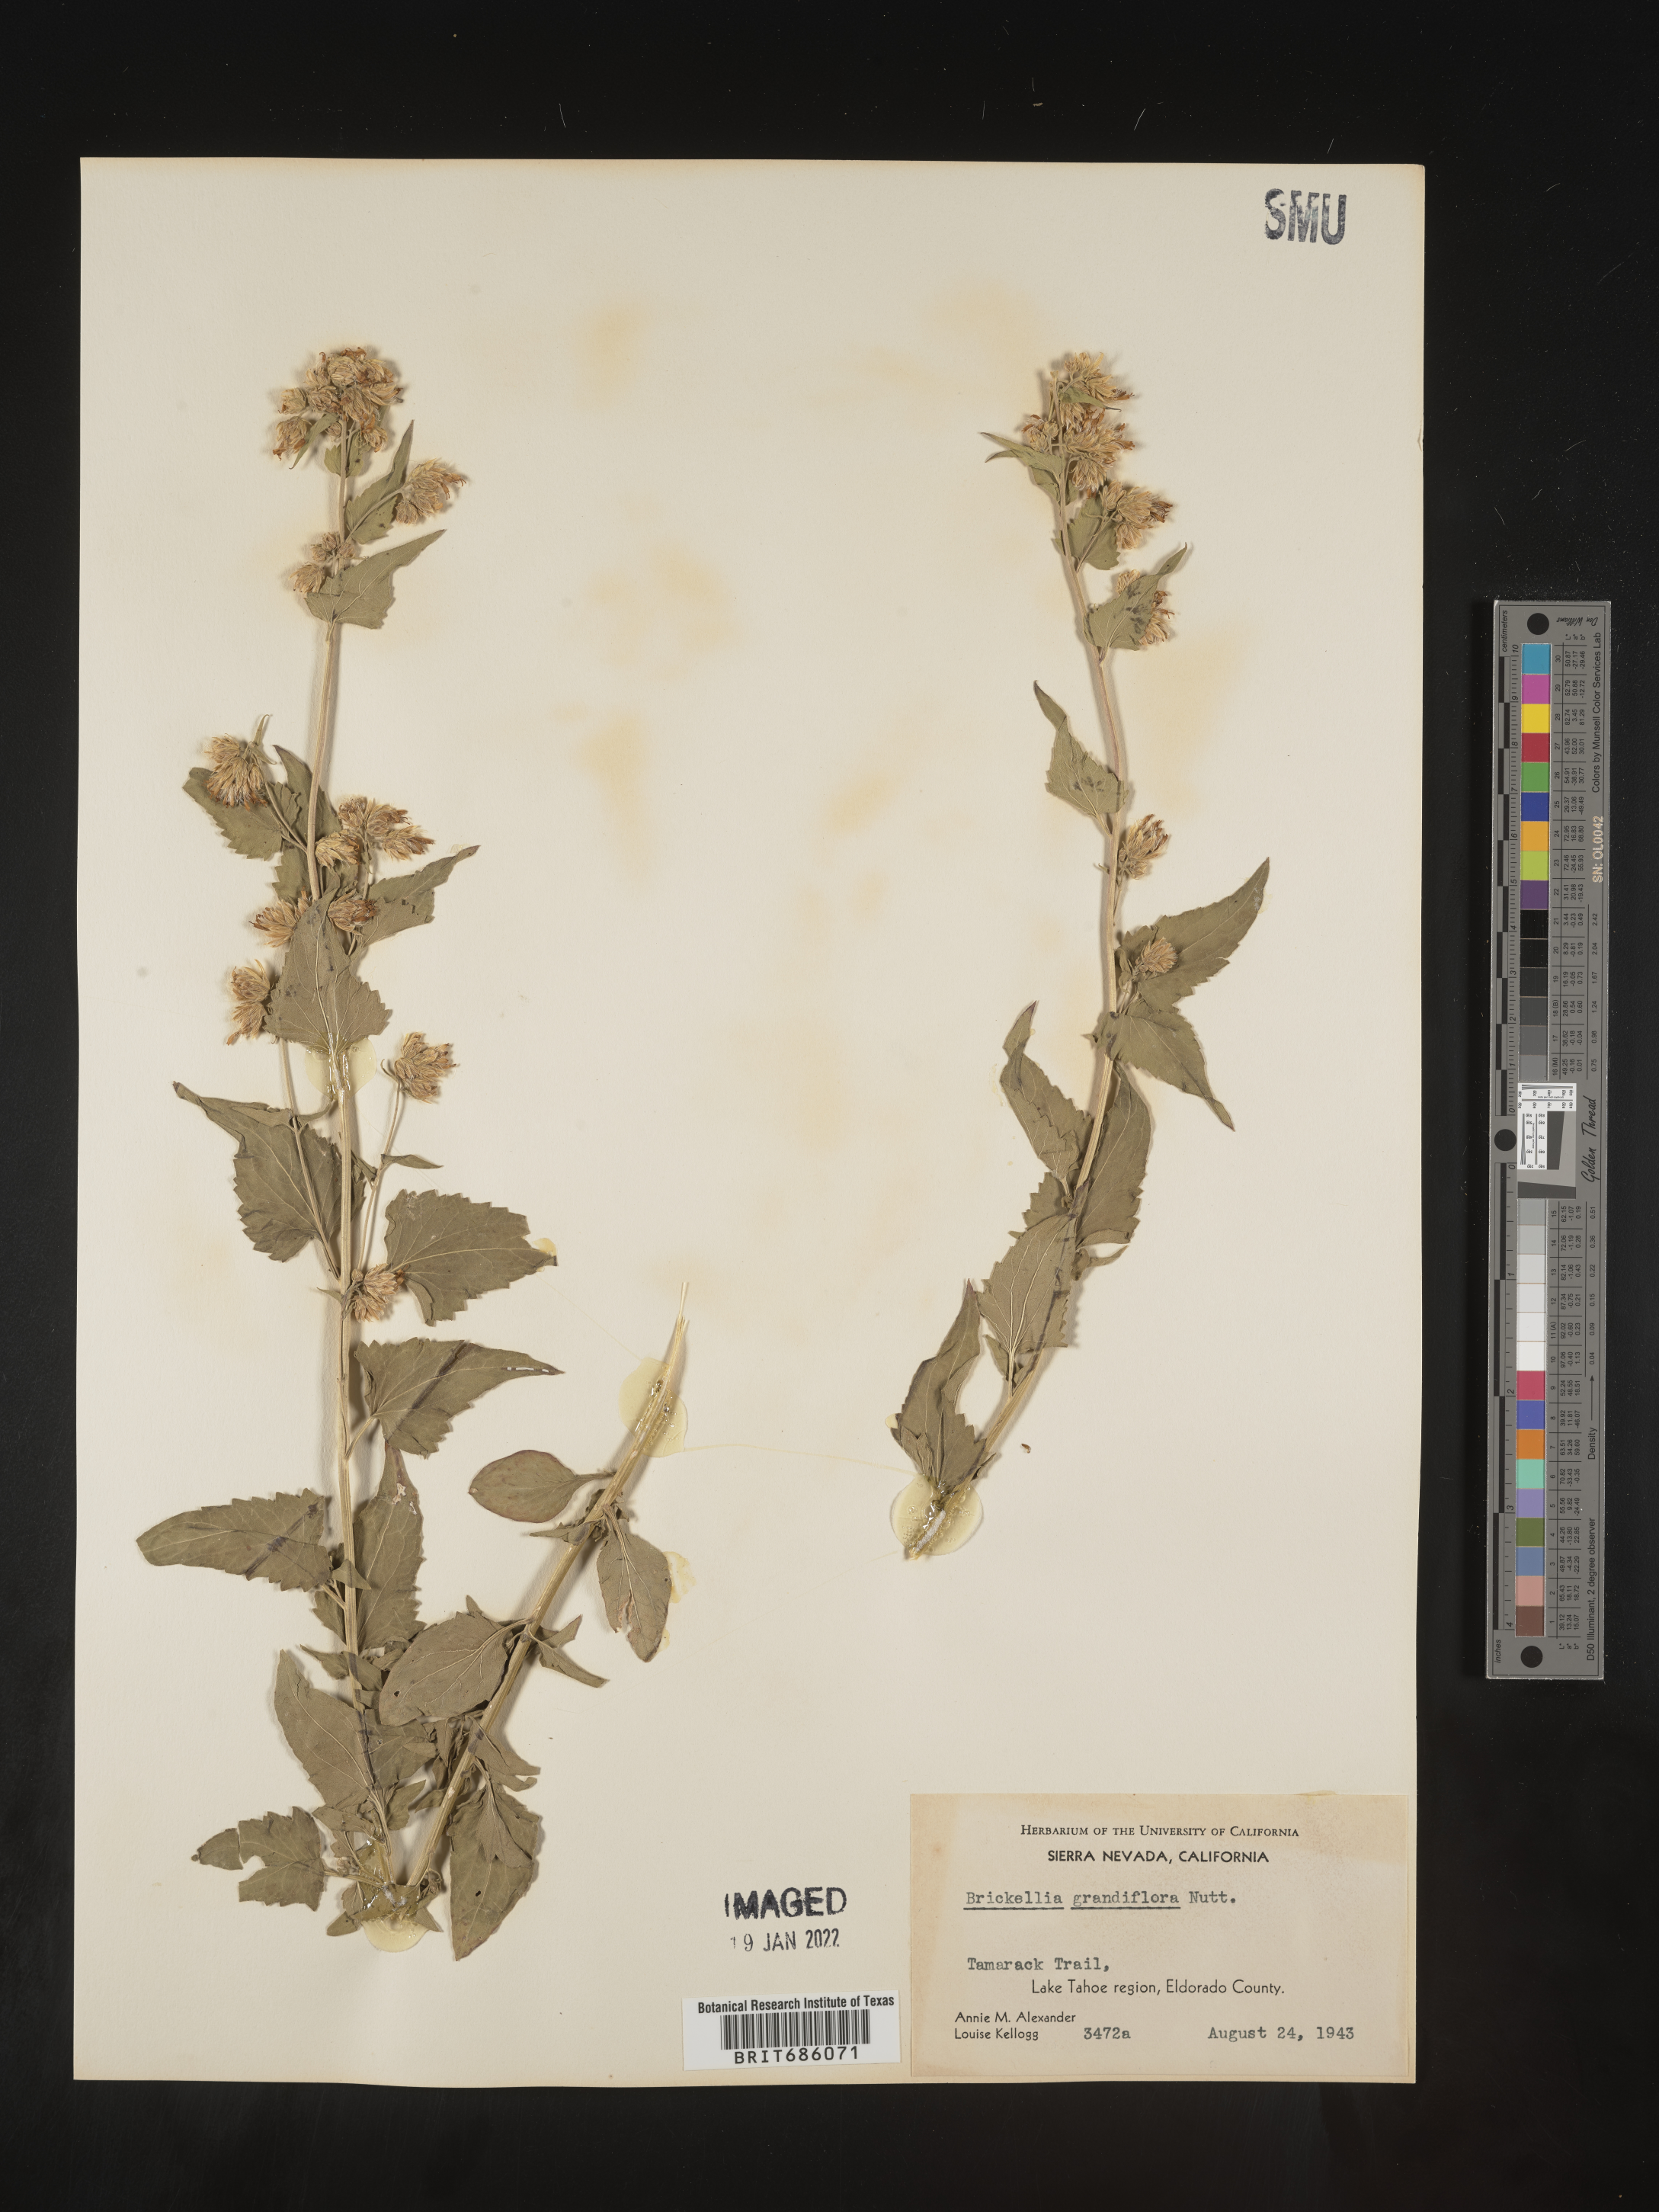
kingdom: Plantae
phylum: Tracheophyta
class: Magnoliopsida
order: Asterales
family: Asteraceae
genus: Brickellia
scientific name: Brickellia grandiflora
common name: Large-flowered brickellia
